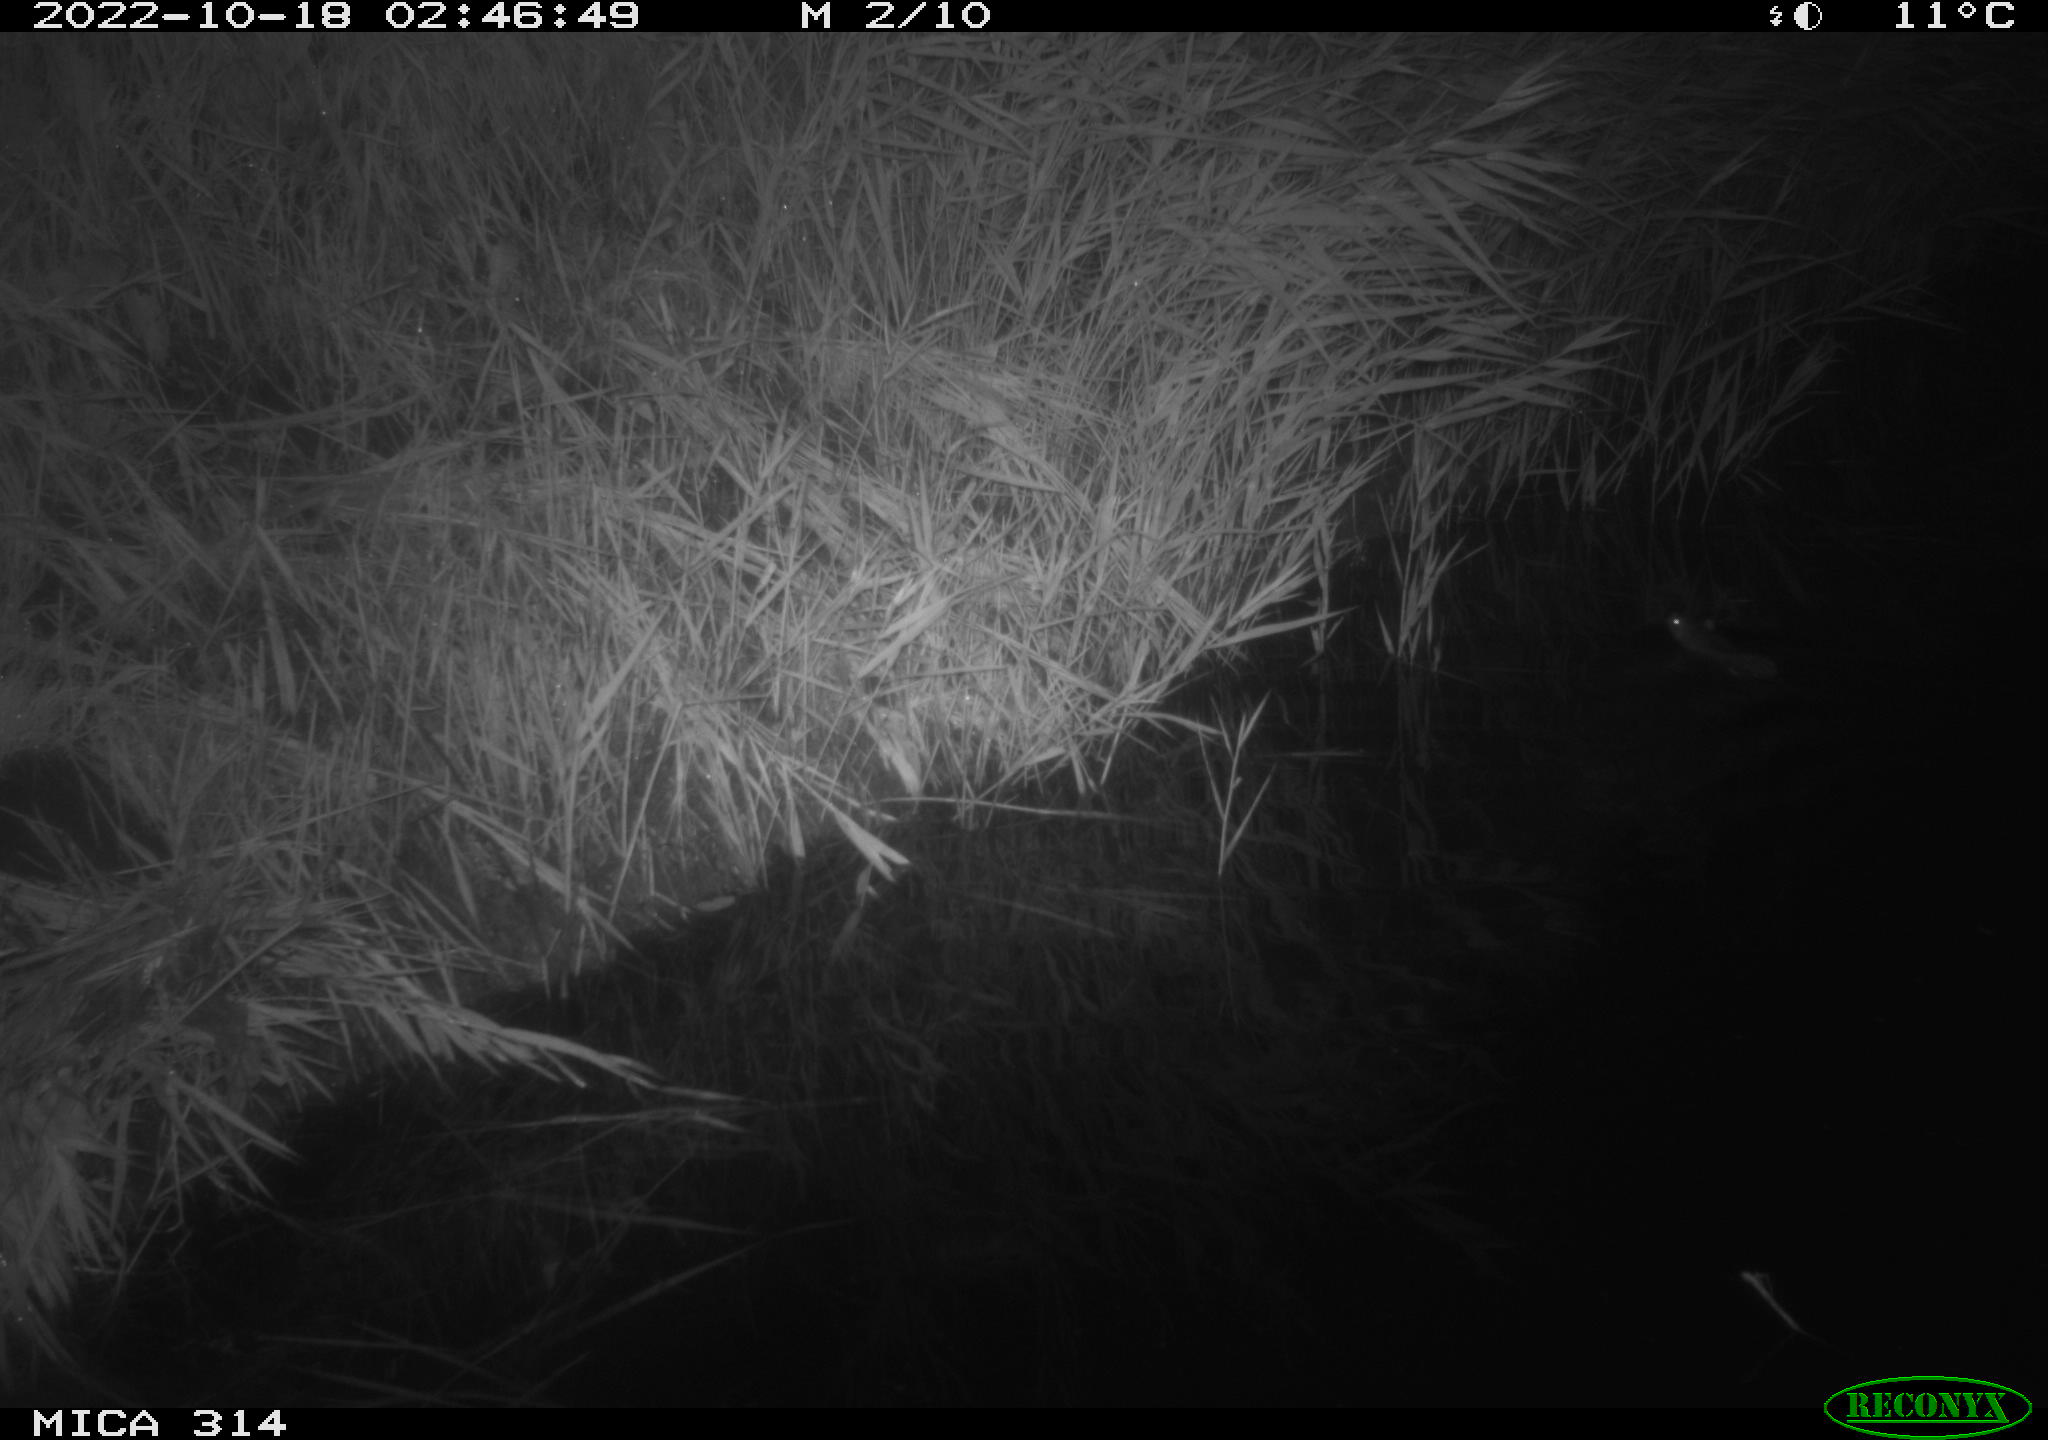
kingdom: Animalia
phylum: Chordata
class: Mammalia
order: Rodentia
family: Muridae
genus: Rattus
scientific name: Rattus norvegicus
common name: Brown rat
